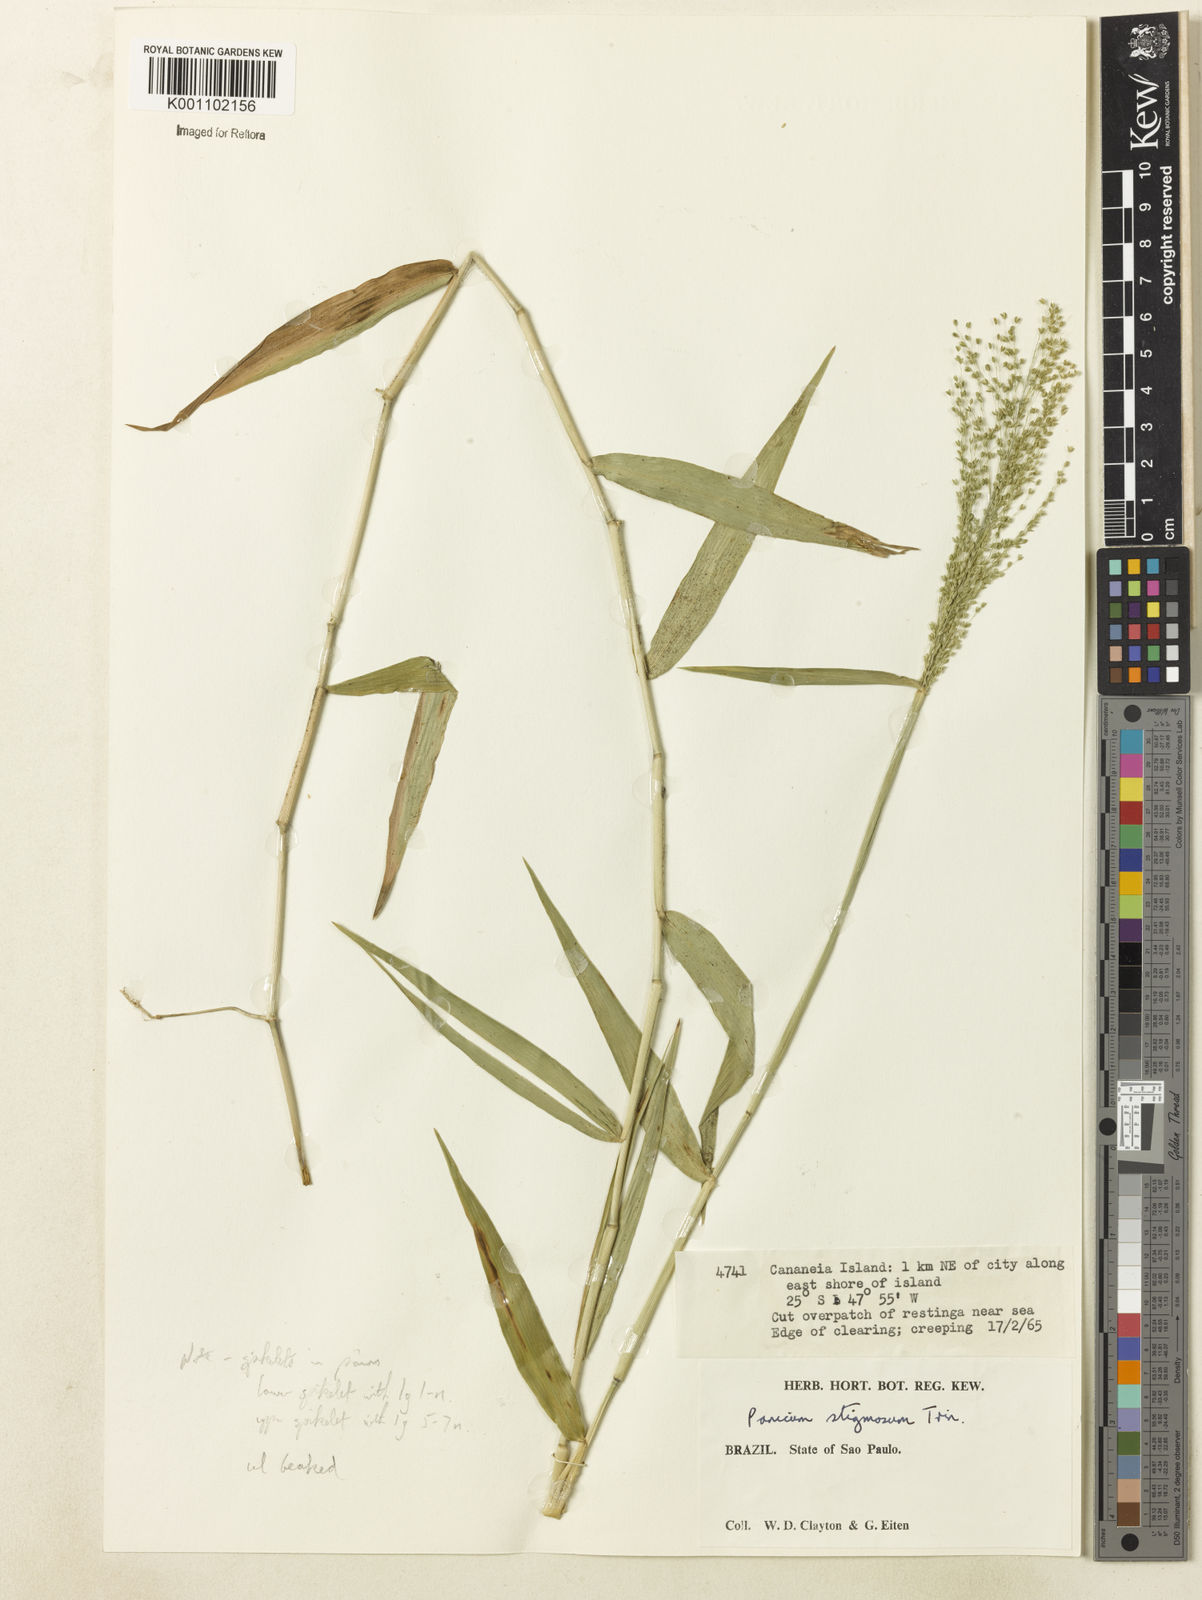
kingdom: Plantae
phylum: Tracheophyta
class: Liliopsida
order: Poales
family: Poaceae
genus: Dichanthelium
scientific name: Dichanthelium hebotes
